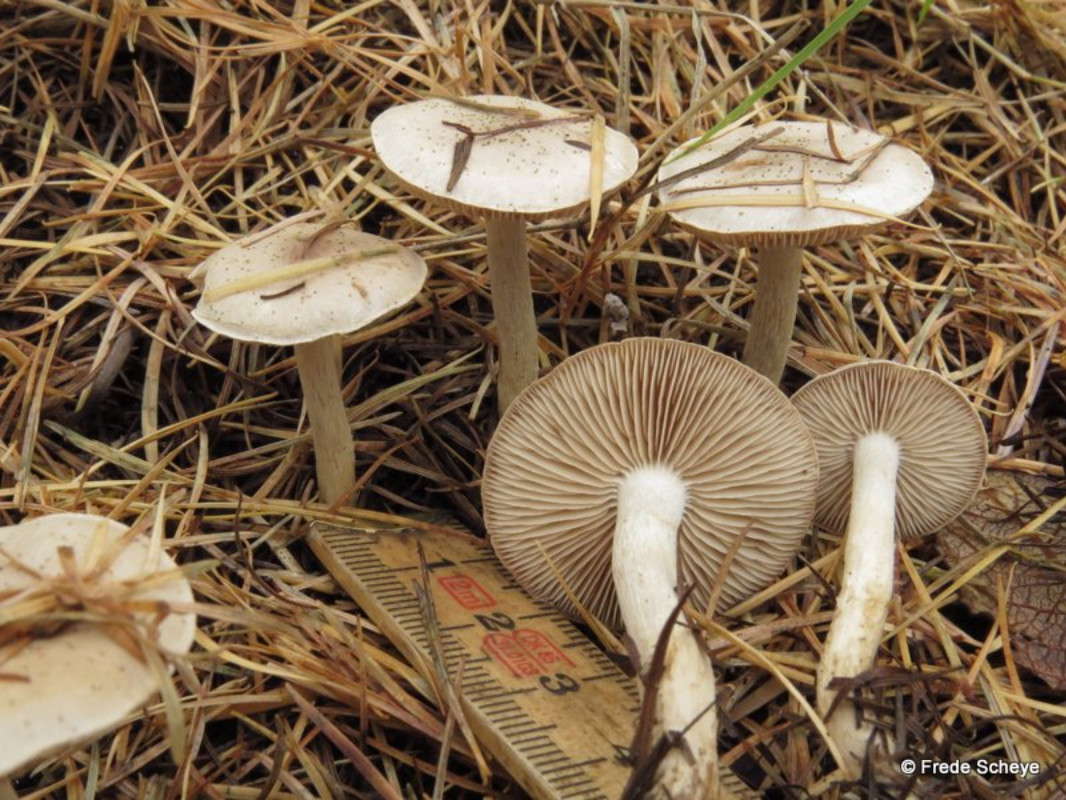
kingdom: Fungi
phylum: Basidiomycota
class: Agaricomycetes
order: Agaricales
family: Hymenogastraceae
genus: Hebeloma
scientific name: Hebeloma mesophaeum
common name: lerbrun tåreblad
